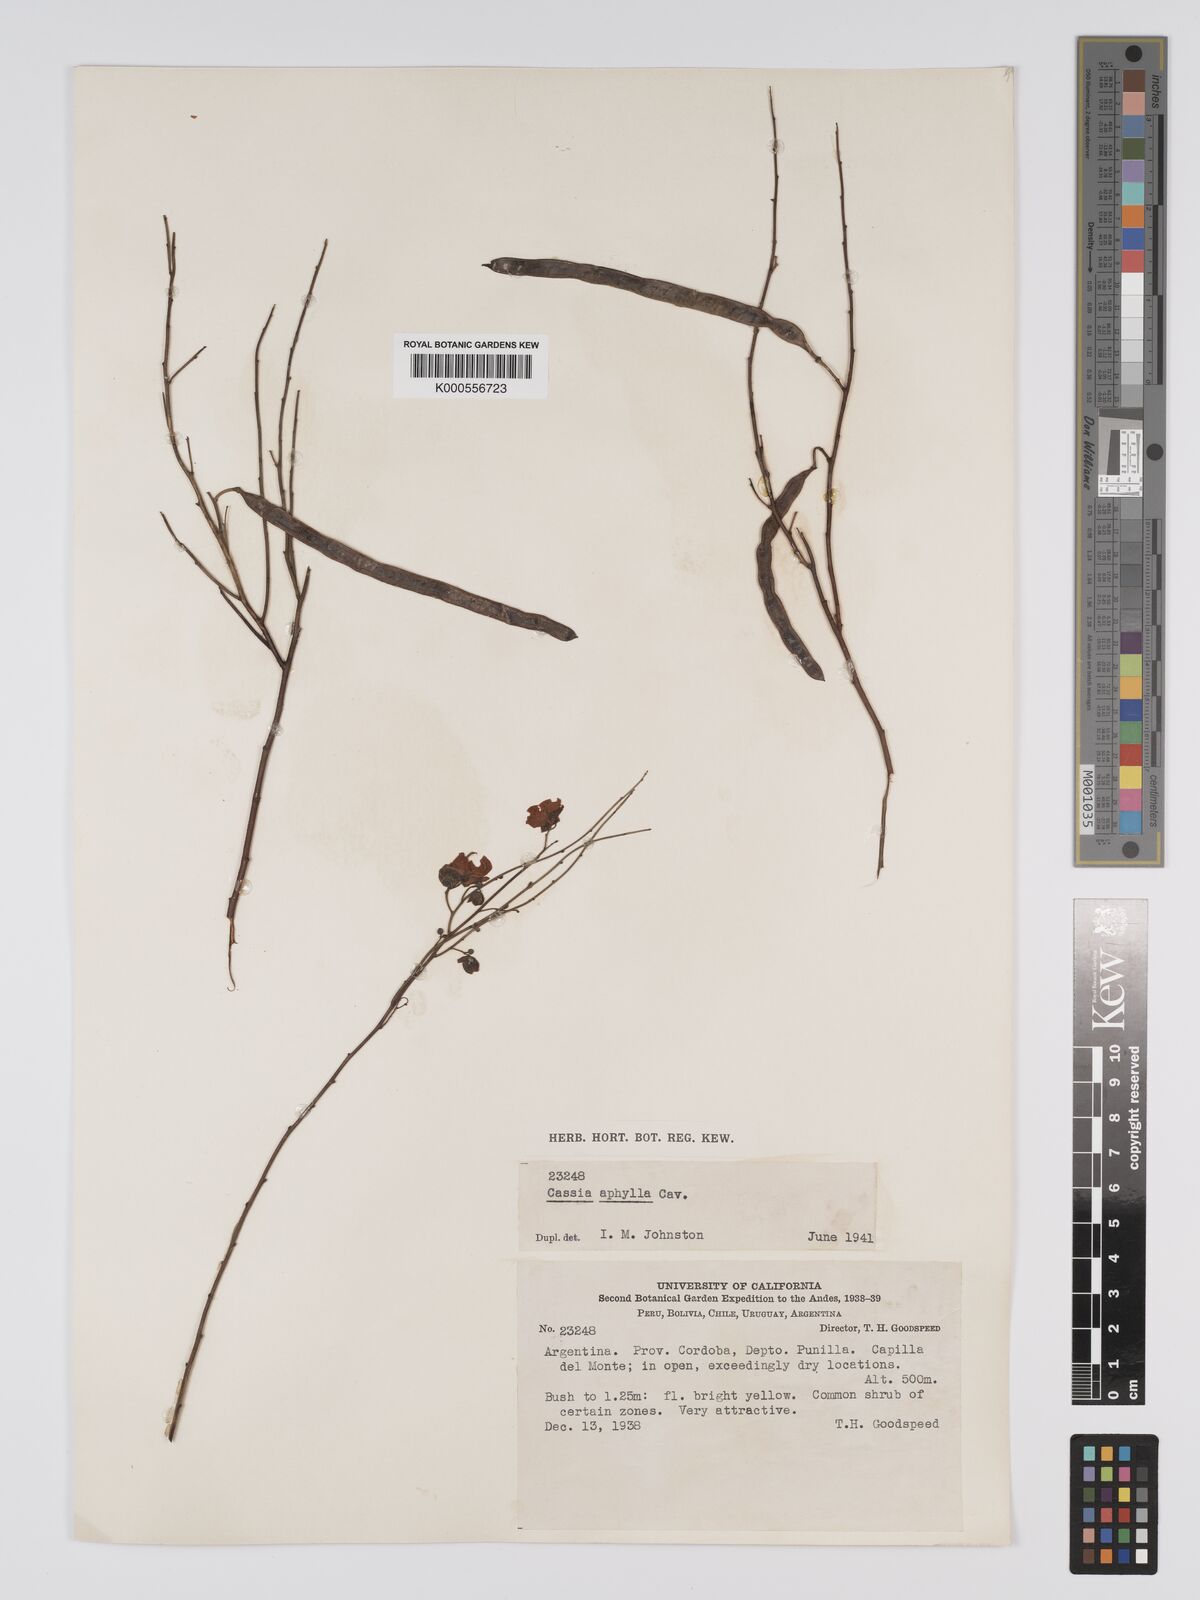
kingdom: Plantae
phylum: Tracheophyta
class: Magnoliopsida
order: Fabales
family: Fabaceae
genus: Senna
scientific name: Senna aphylla
